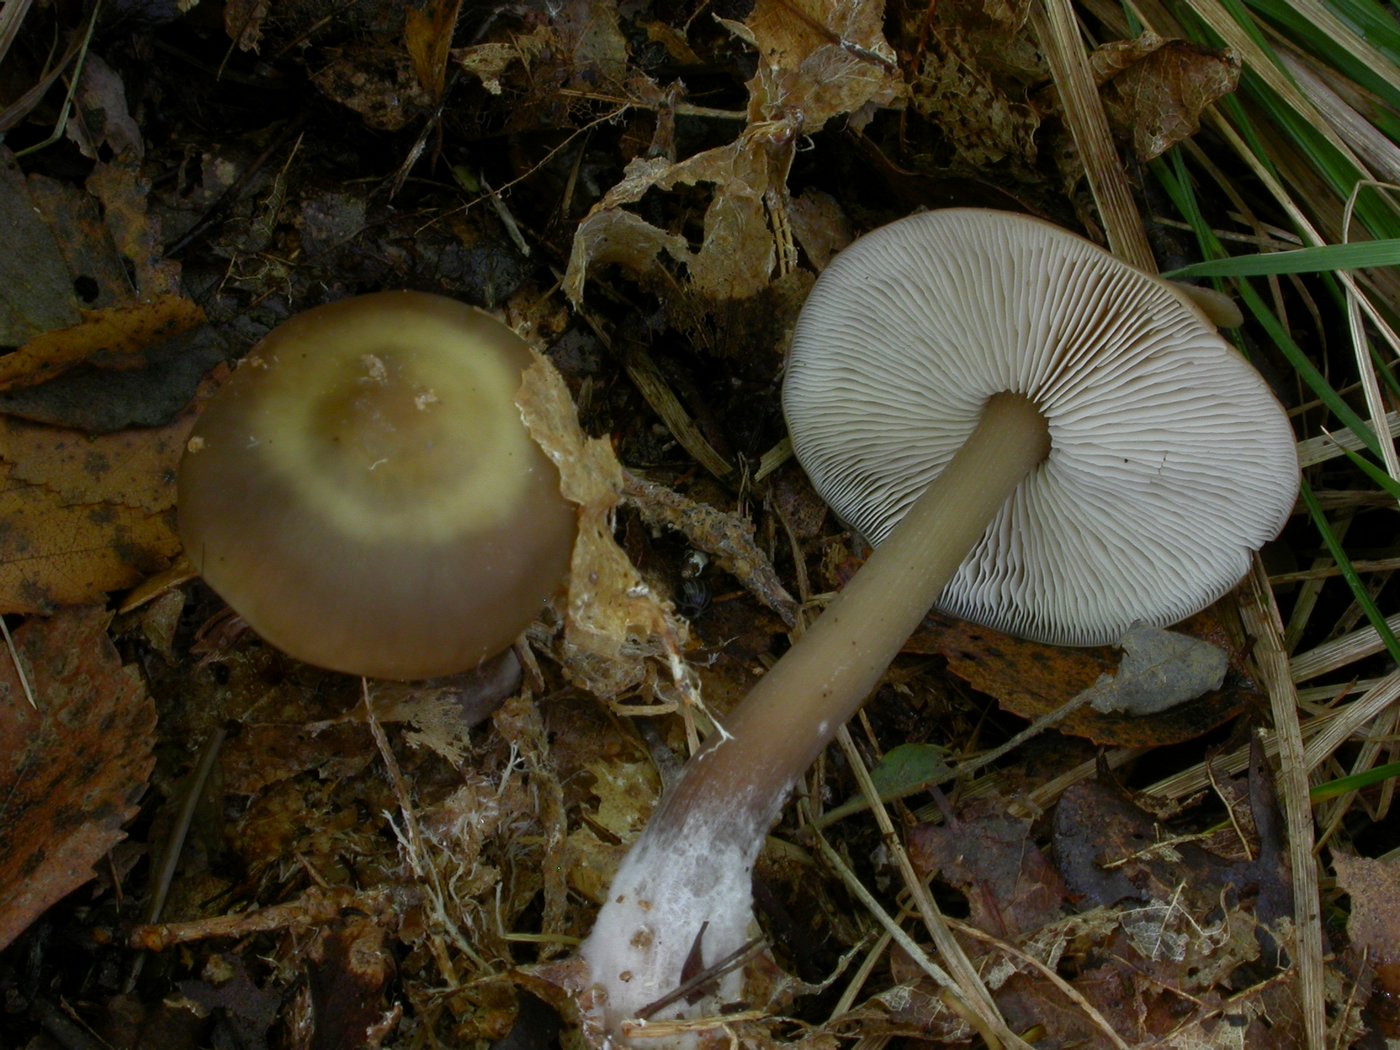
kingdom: Fungi
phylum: Basidiomycota
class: Agaricomycetes
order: Agaricales
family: Omphalotaceae
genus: Rhodocollybia
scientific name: Rhodocollybia asema
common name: horngrå fladhat
